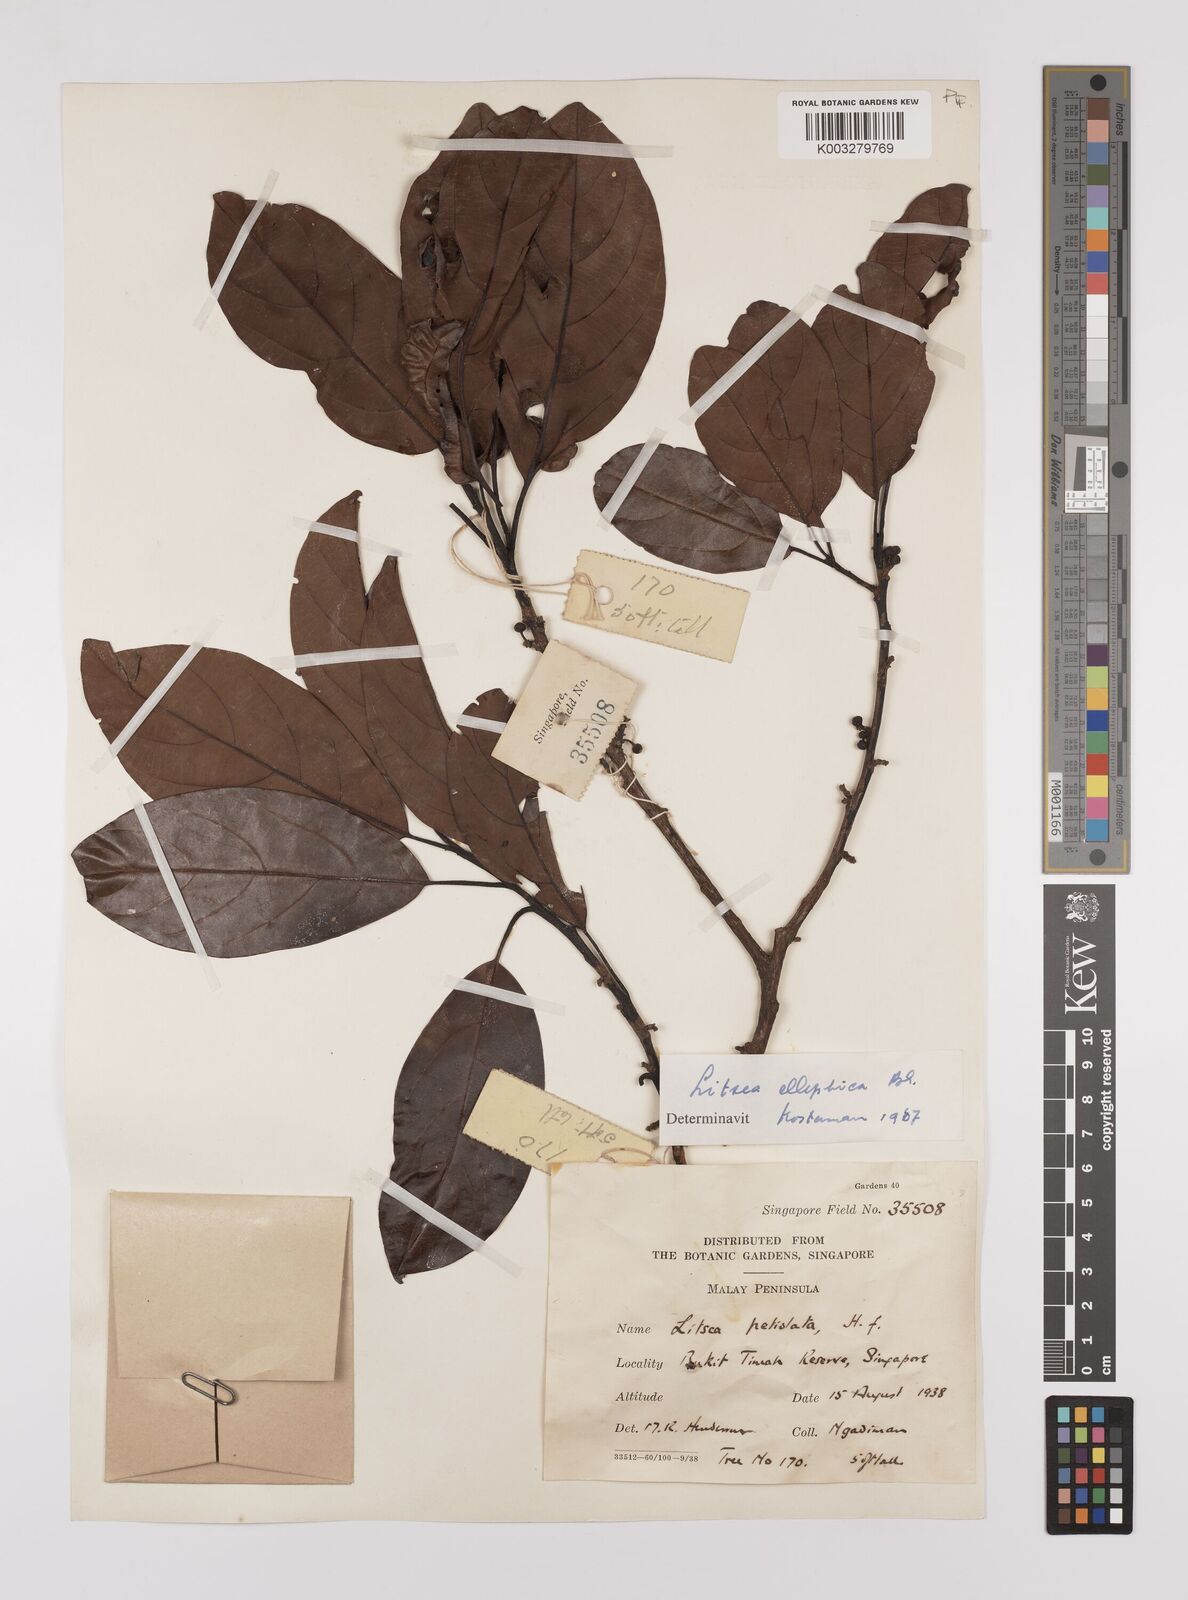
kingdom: Plantae
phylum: Tracheophyta
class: Magnoliopsida
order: Laurales
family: Lauraceae
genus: Litsea
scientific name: Litsea elliptica
